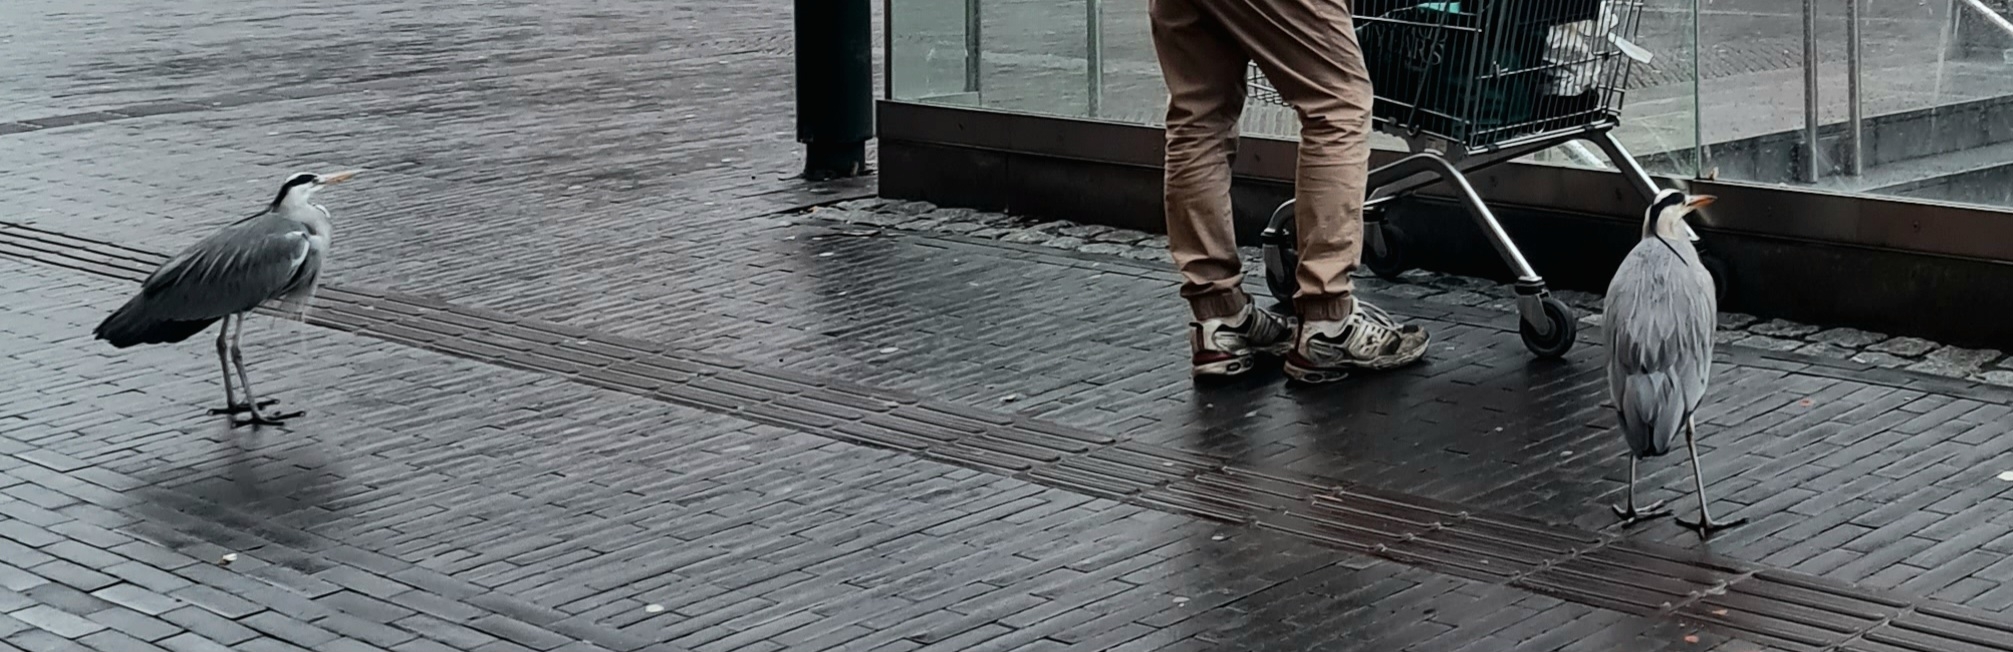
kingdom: Animalia
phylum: Chordata
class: Aves
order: Pelecaniformes
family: Ardeidae
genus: Ardea
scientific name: Ardea cinerea
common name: Fiskehejre
